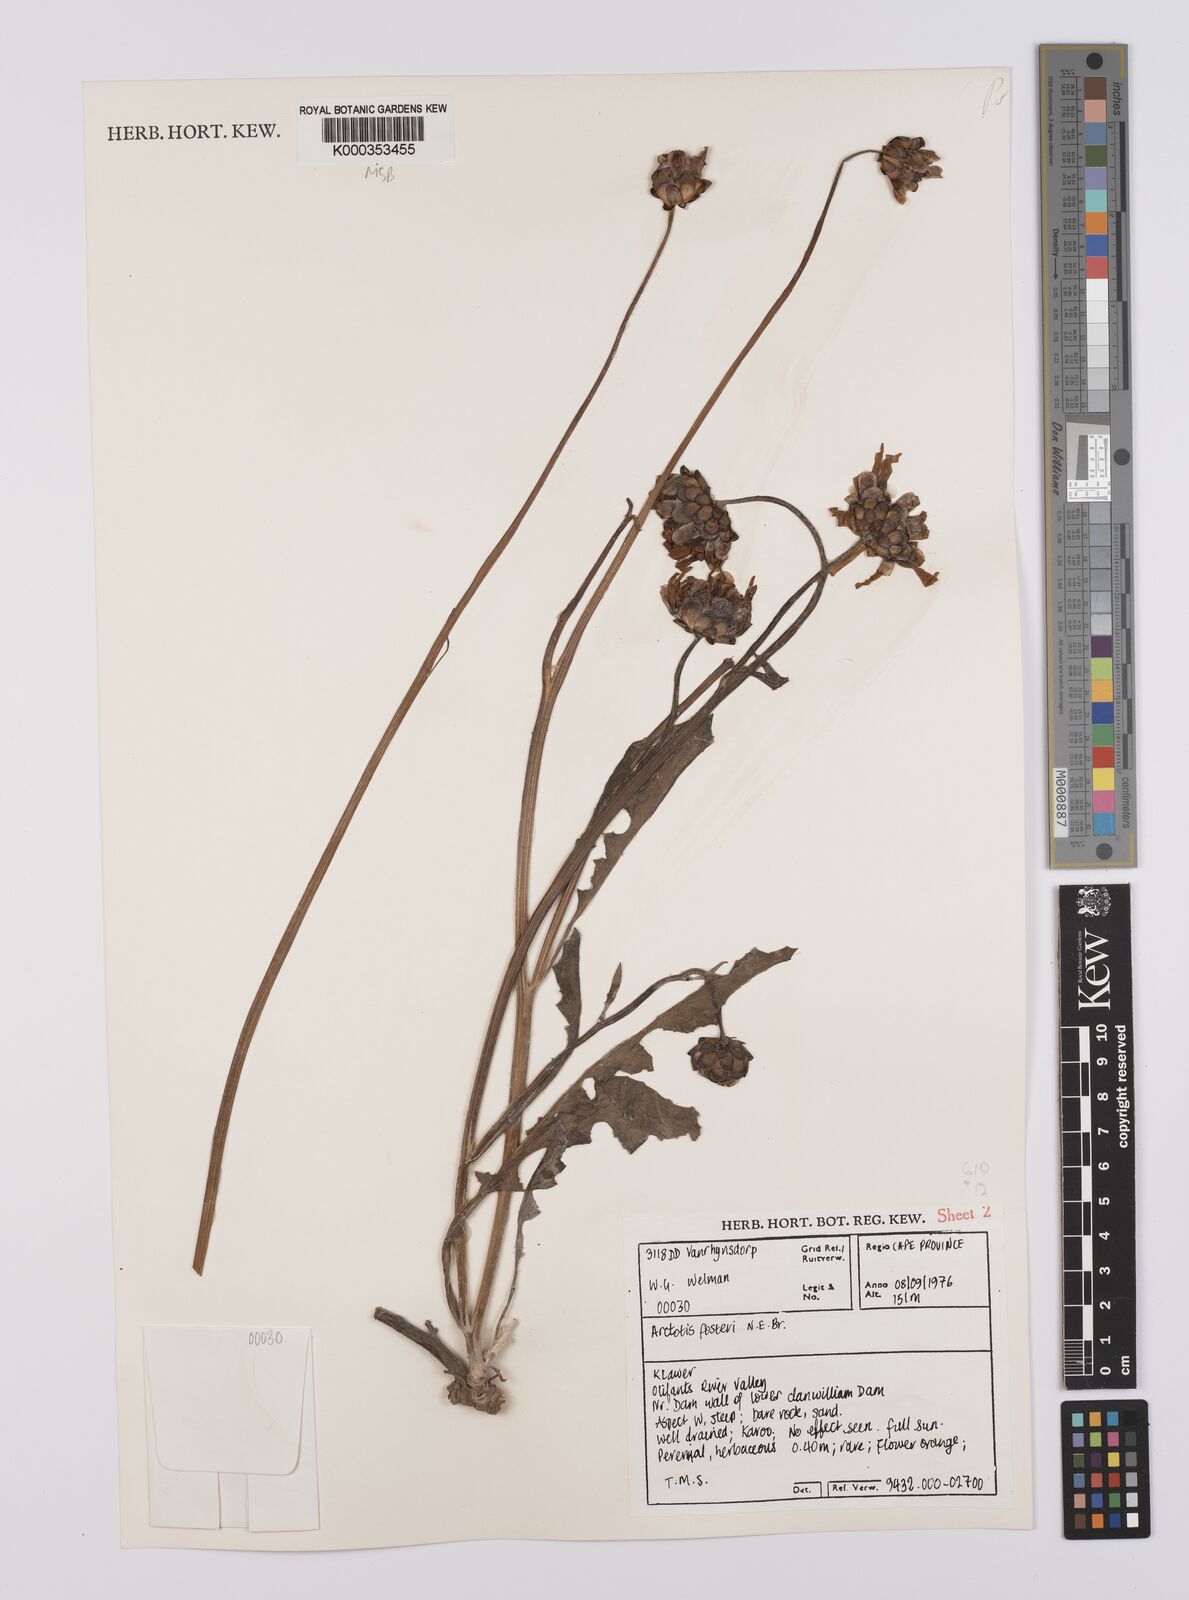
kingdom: Plantae
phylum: Tracheophyta
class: Magnoliopsida
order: Asterales
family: Asteraceae
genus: Arctotis
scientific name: Arctotis fosteri
